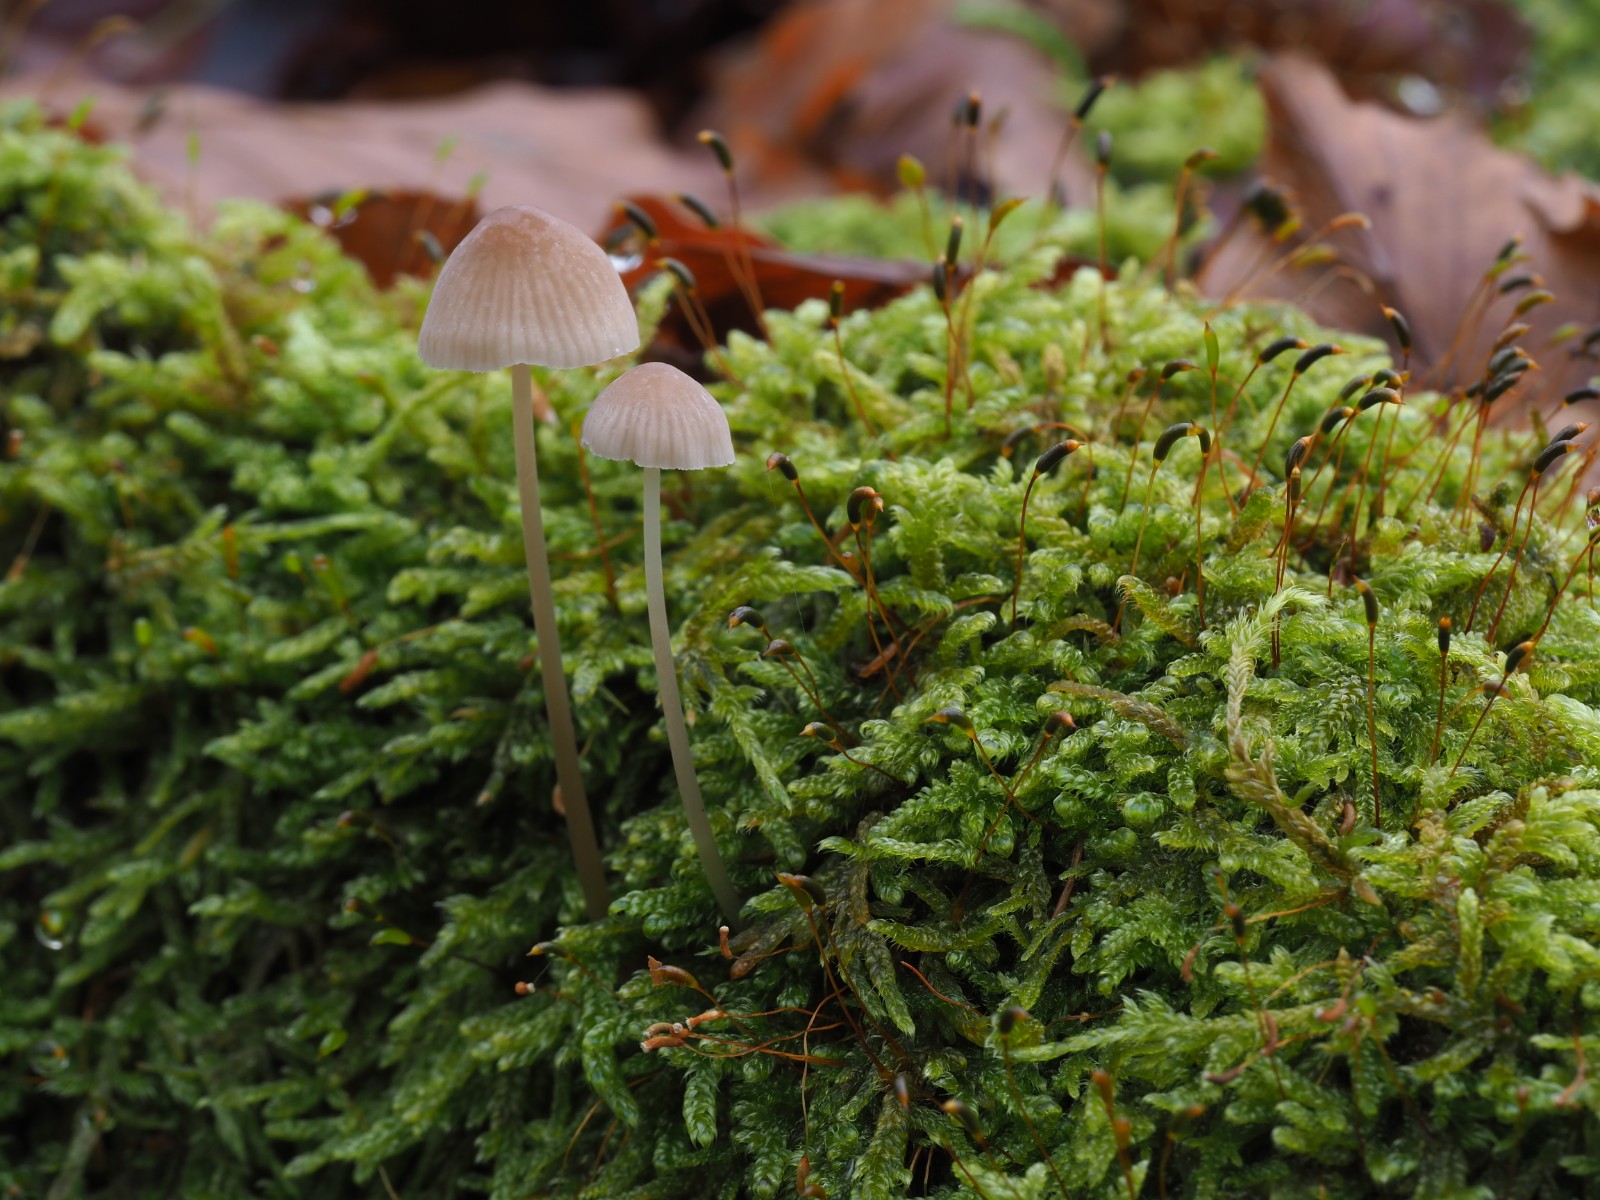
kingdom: Fungi
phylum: Basidiomycota
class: Agaricomycetes
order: Agaricales
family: Mycenaceae
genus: Mycena
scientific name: Mycena metata
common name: rødlig huesvamp
